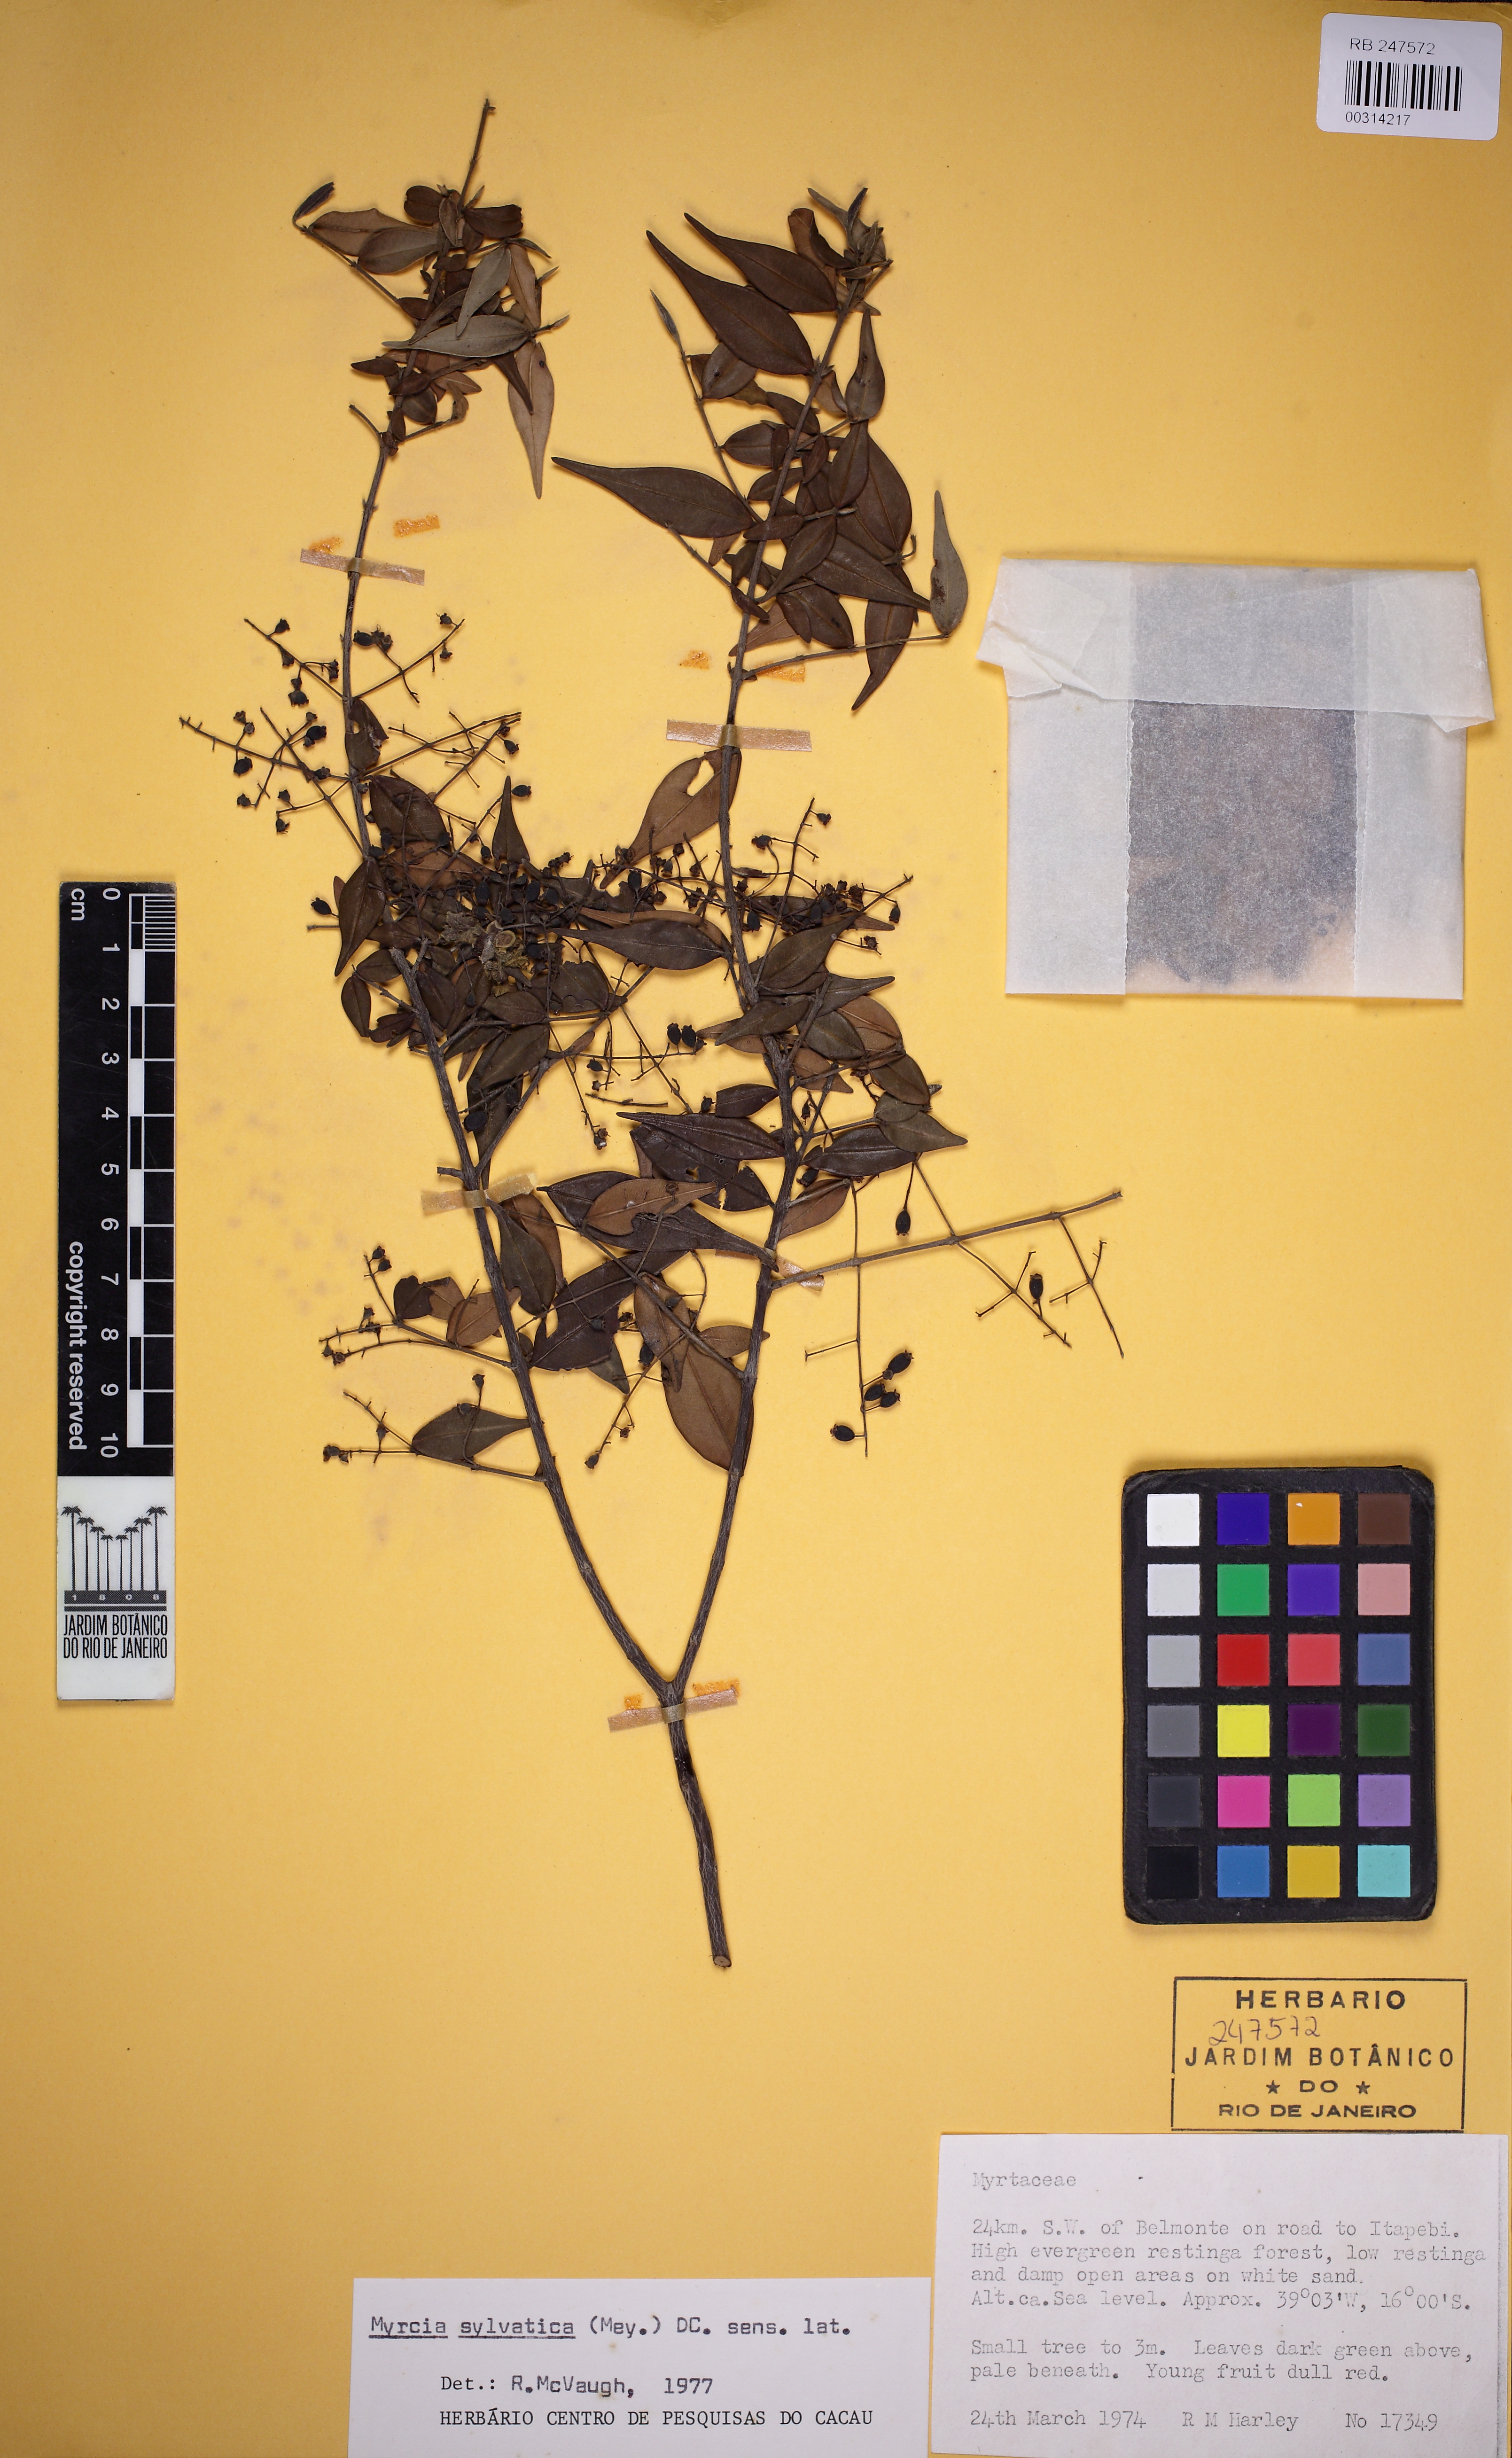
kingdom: Plantae
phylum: Tracheophyta
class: Magnoliopsida
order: Myrtales
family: Myrtaceae
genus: Myrcia
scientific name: Myrcia sylvatica
